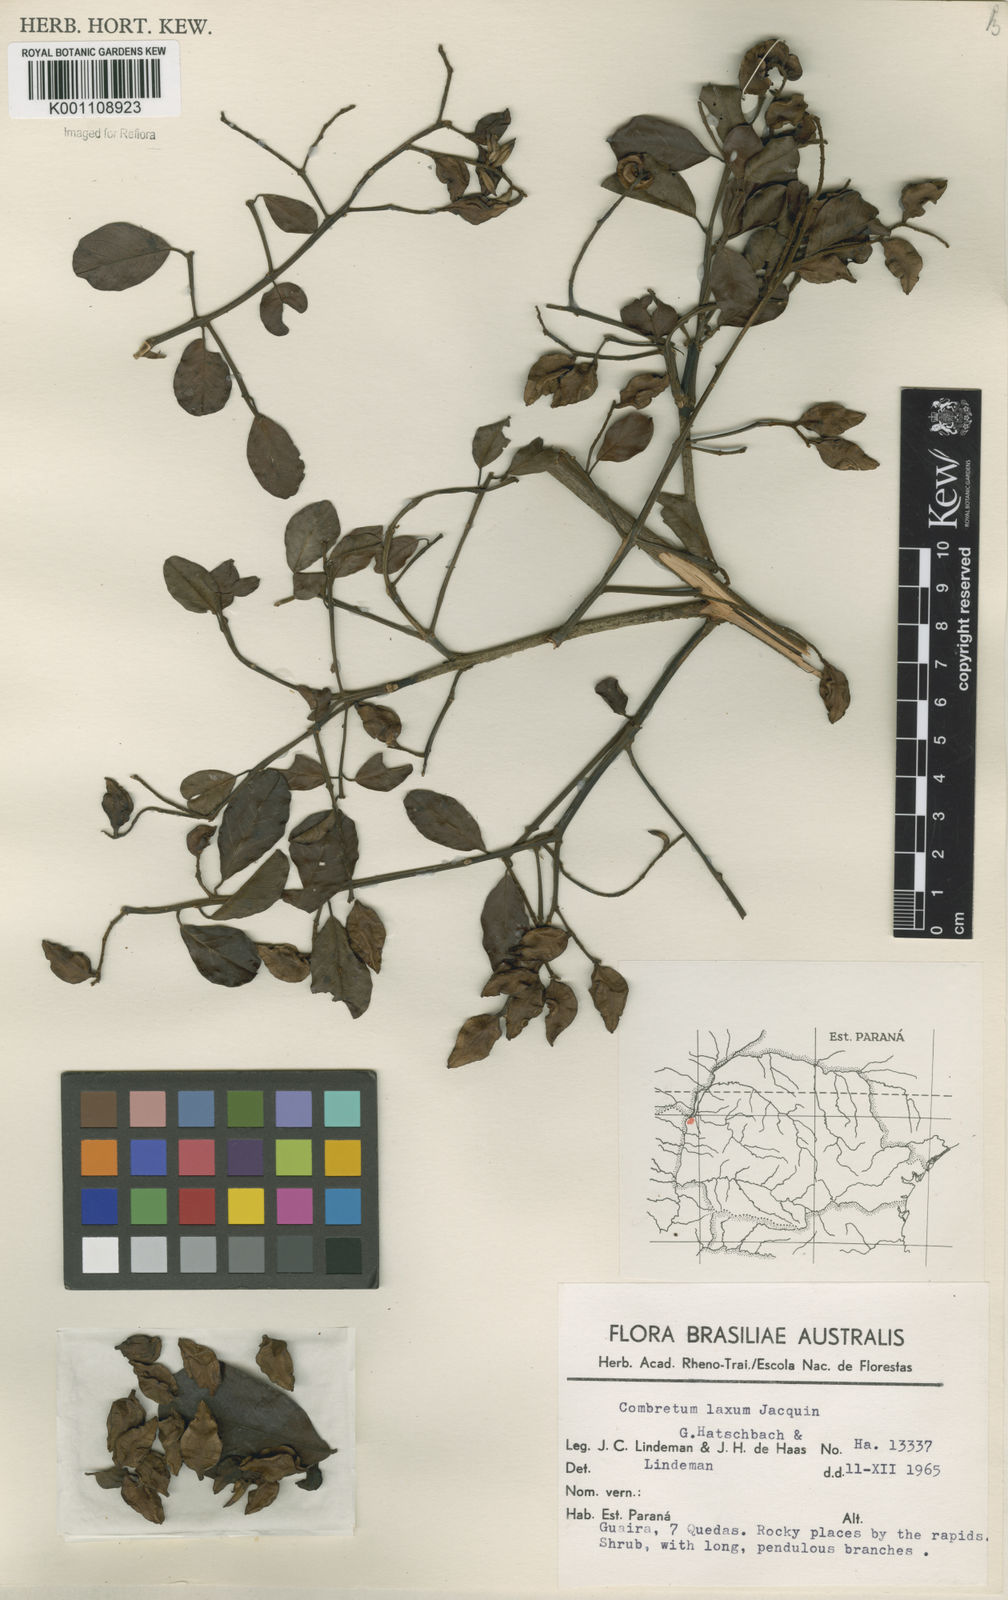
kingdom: Plantae
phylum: Tracheophyta
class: Magnoliopsida
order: Myrtales
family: Combretaceae
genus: Combretum
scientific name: Combretum laxum
